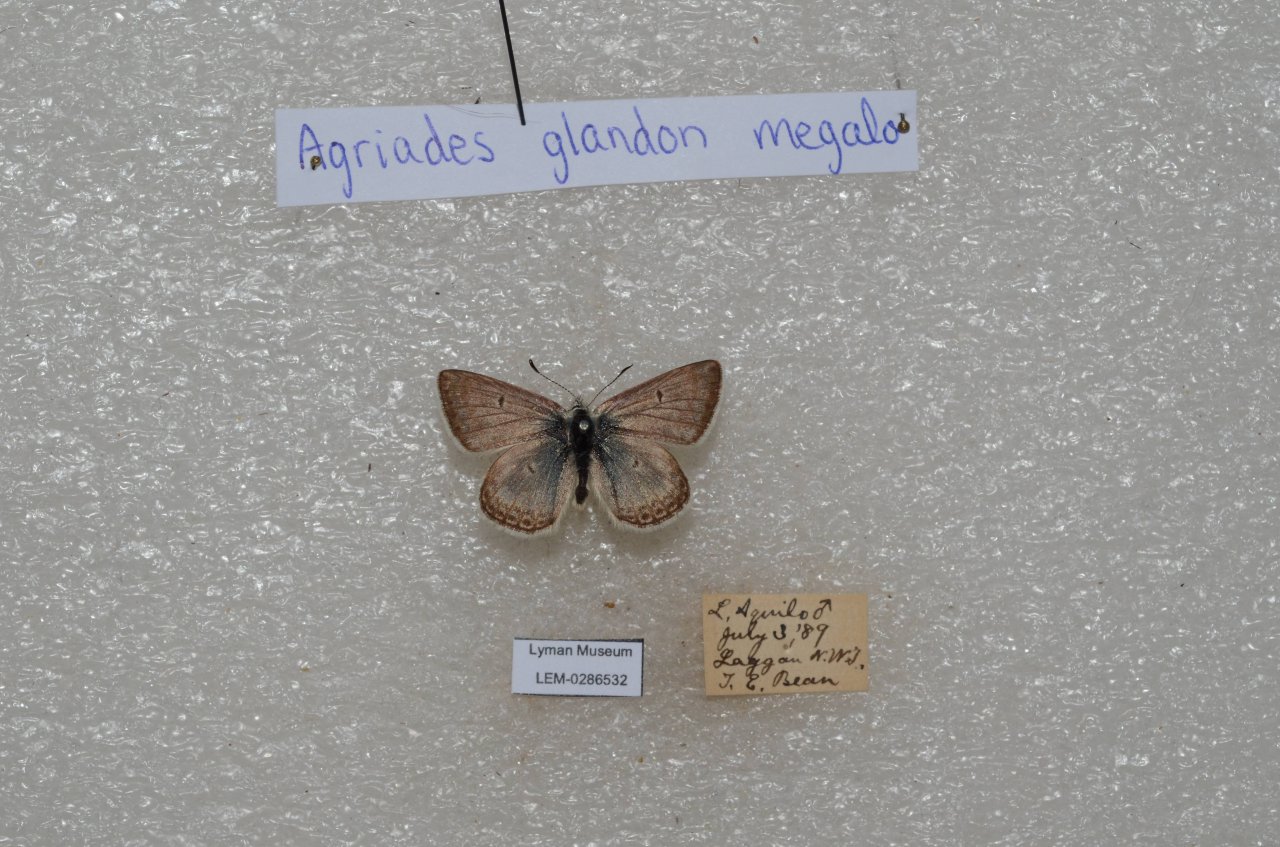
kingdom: Animalia
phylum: Arthropoda
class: Insecta
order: Lepidoptera
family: Lycaenidae
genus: Agriades
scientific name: Agriades glandon
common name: Arctic Blue
